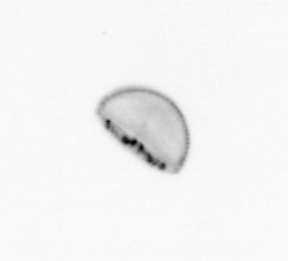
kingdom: Chromista
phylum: Ochrophyta
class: Bacillariophyceae
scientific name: Bacillariophyceae
